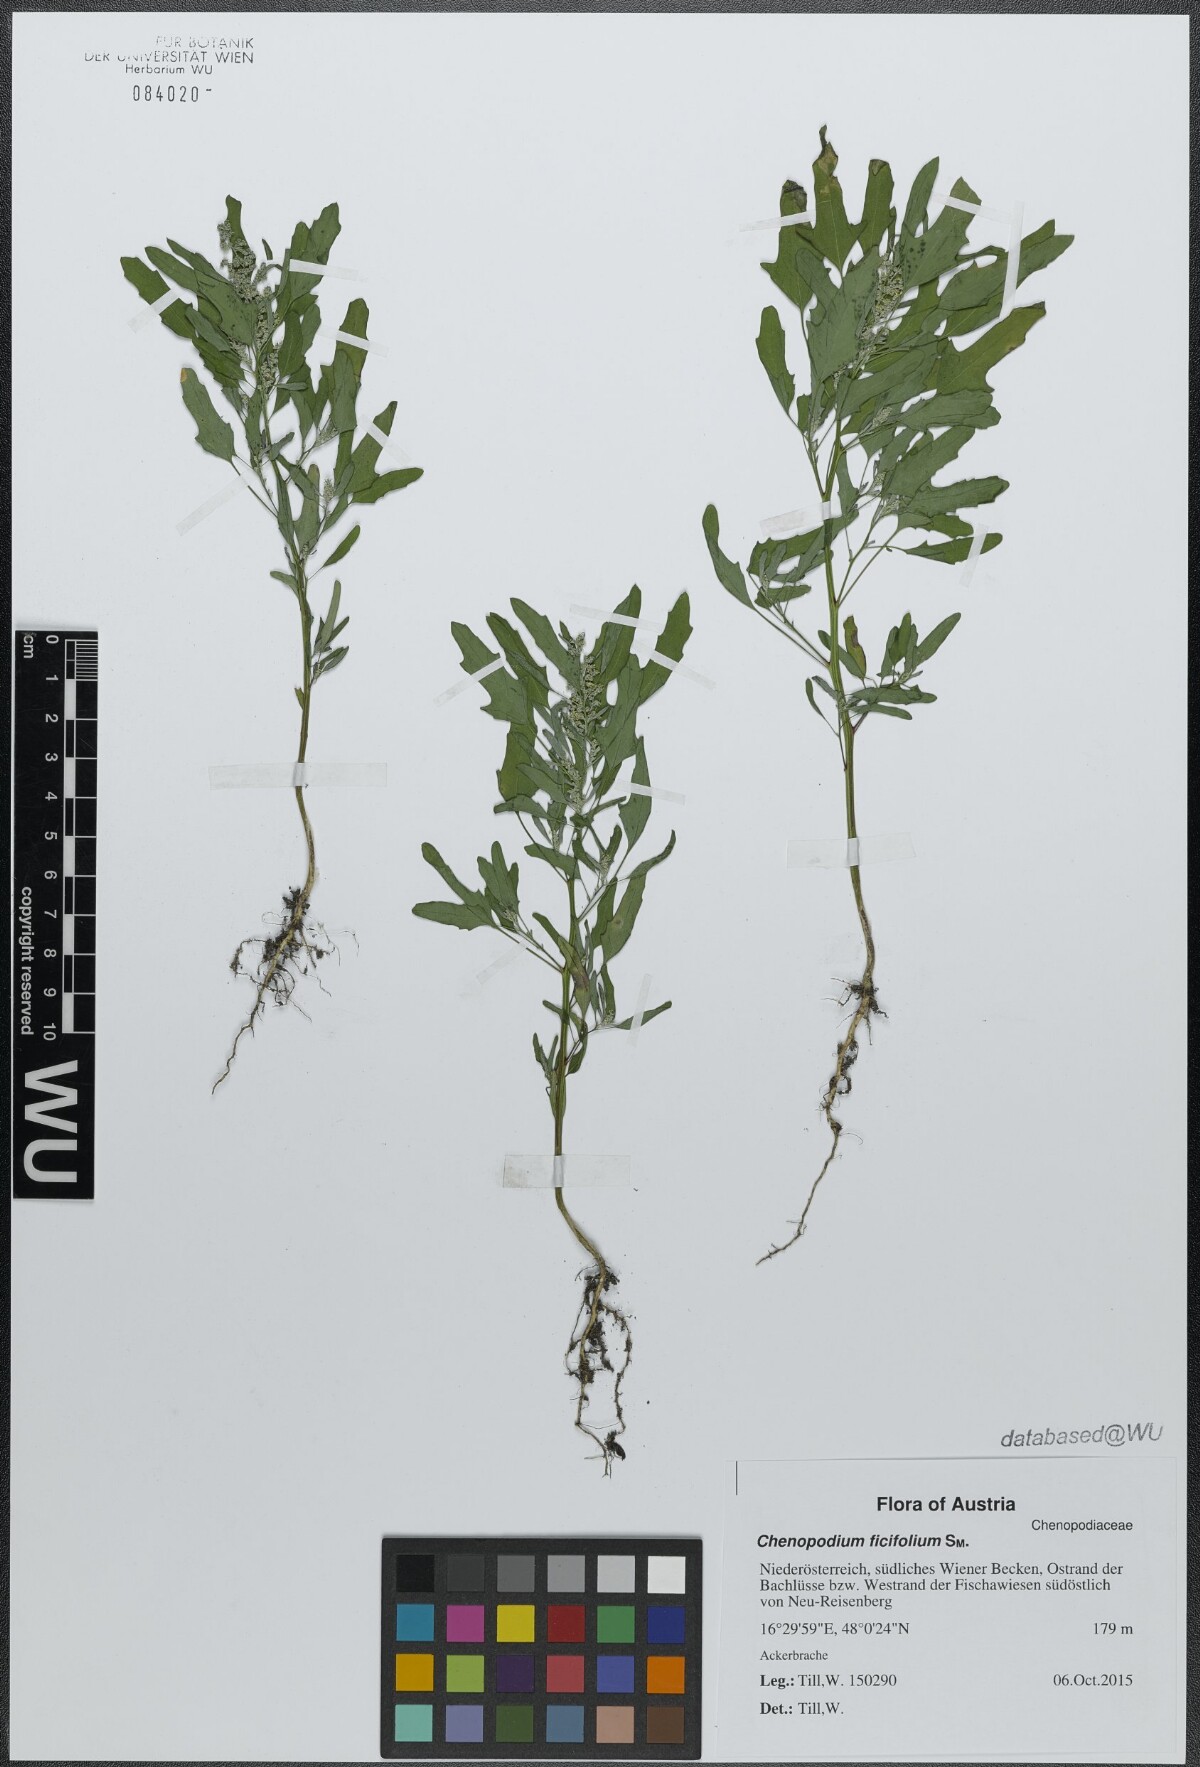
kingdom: Plantae
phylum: Tracheophyta
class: Magnoliopsida
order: Caryophyllales
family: Amaranthaceae
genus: Chenopodium
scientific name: Chenopodium ficifolium
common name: Fig-leaved goosefoot
